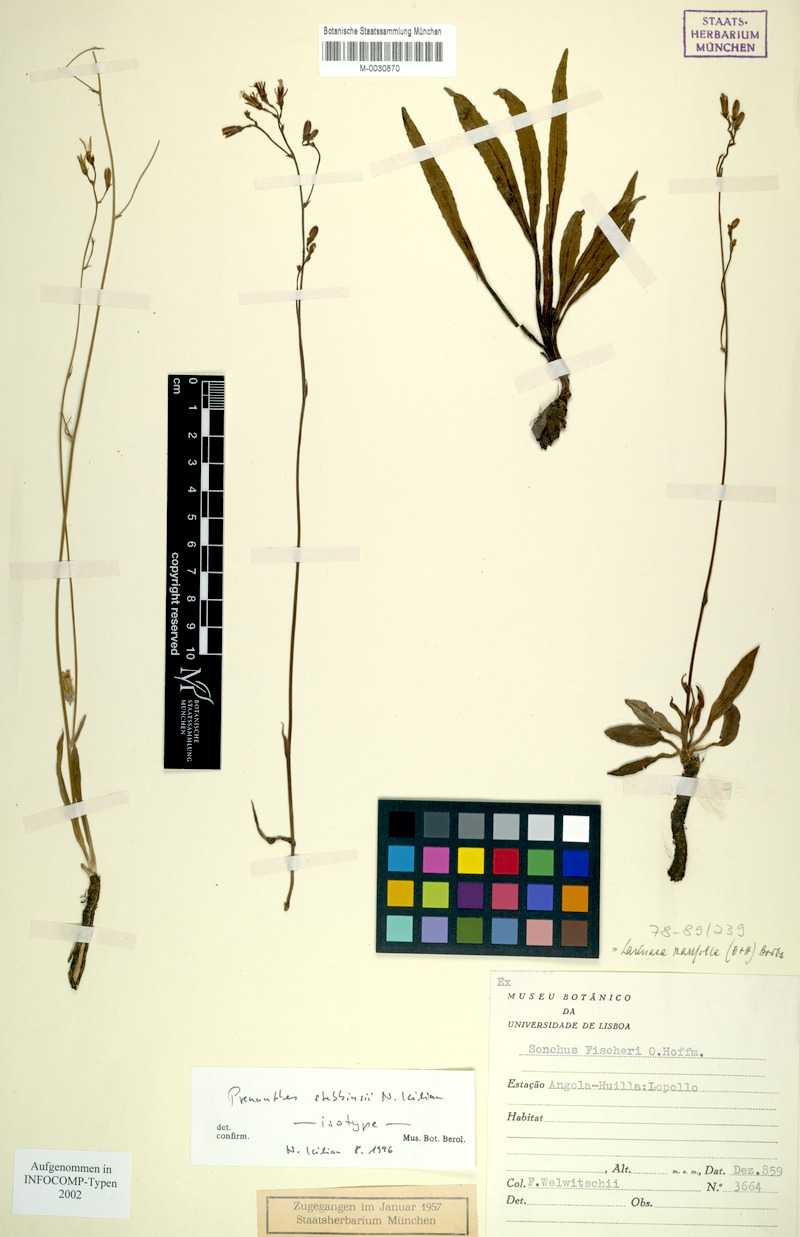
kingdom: Plantae
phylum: Tracheophyta
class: Magnoliopsida
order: Asterales
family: Asteraceae
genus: Lactuca
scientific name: Lactuca stebbinsii
